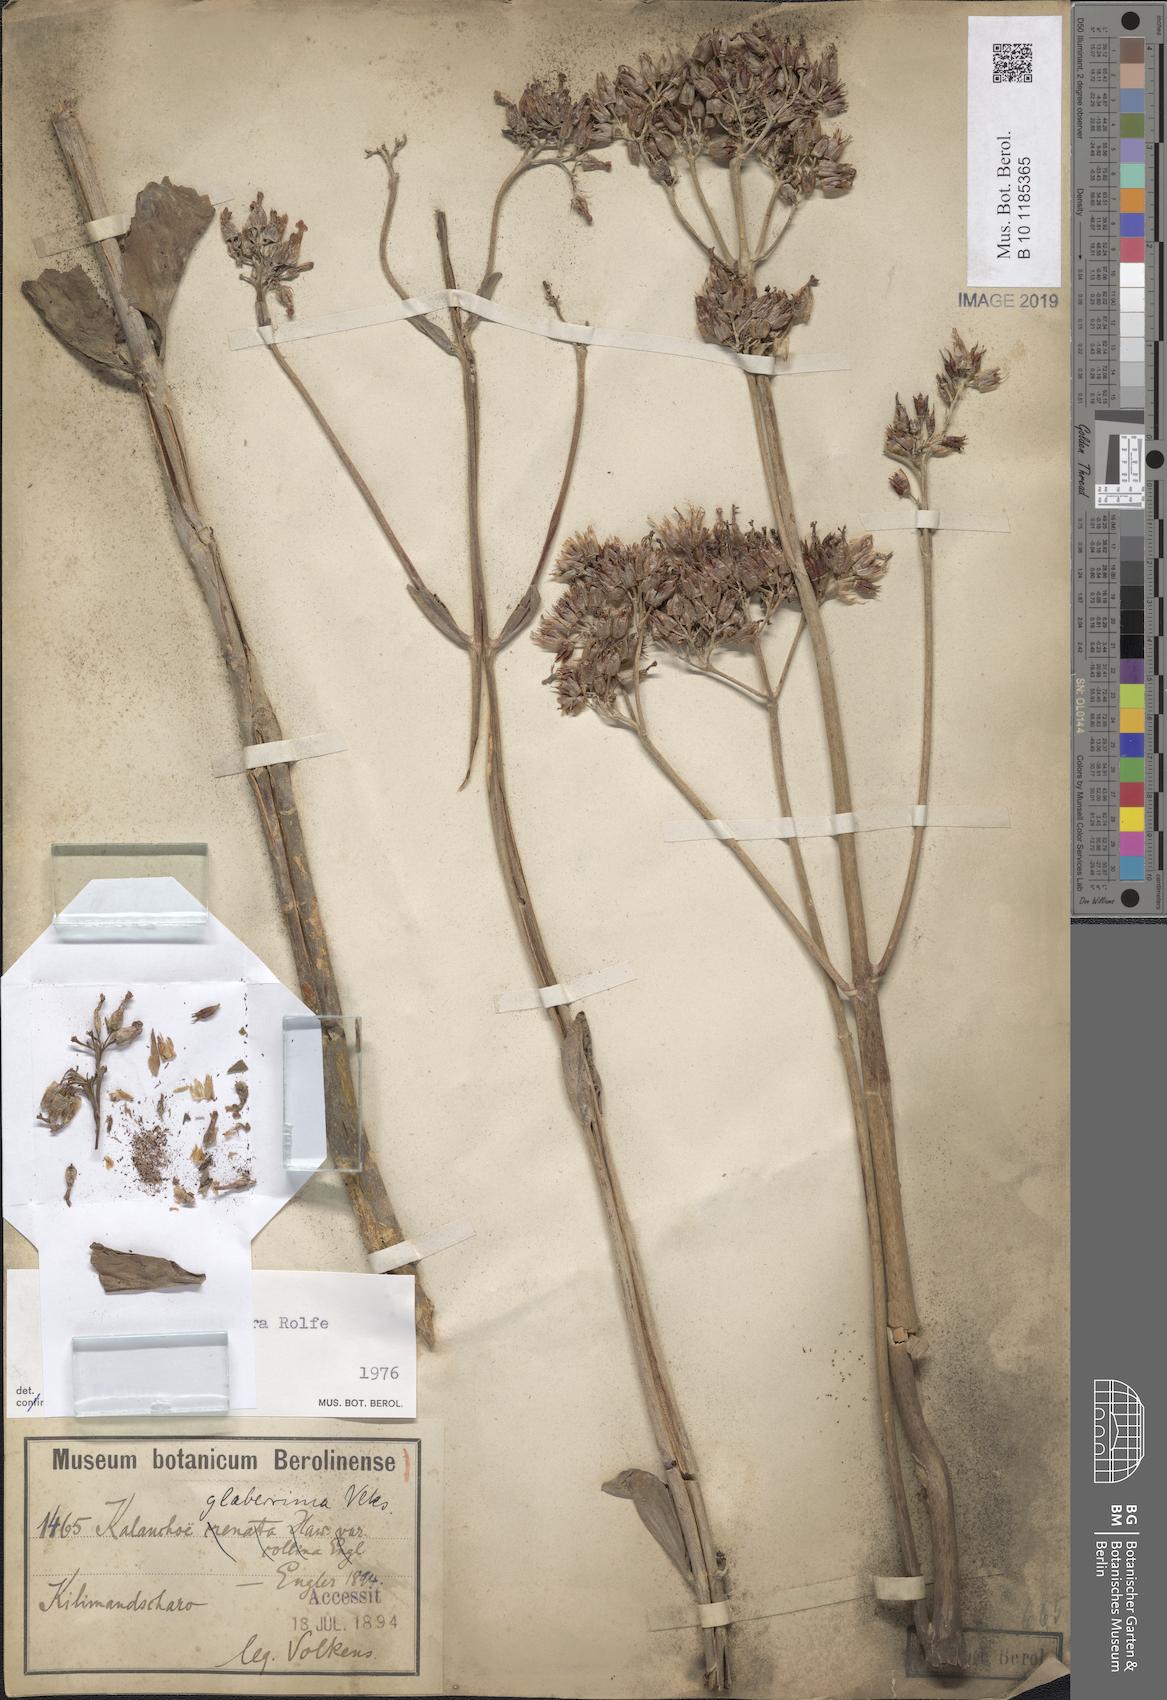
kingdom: Plantae
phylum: Tracheophyta
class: Magnoliopsida
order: Saxifragales
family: Crassulaceae
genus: Kalanchoe
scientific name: Kalanchoe densiflora
